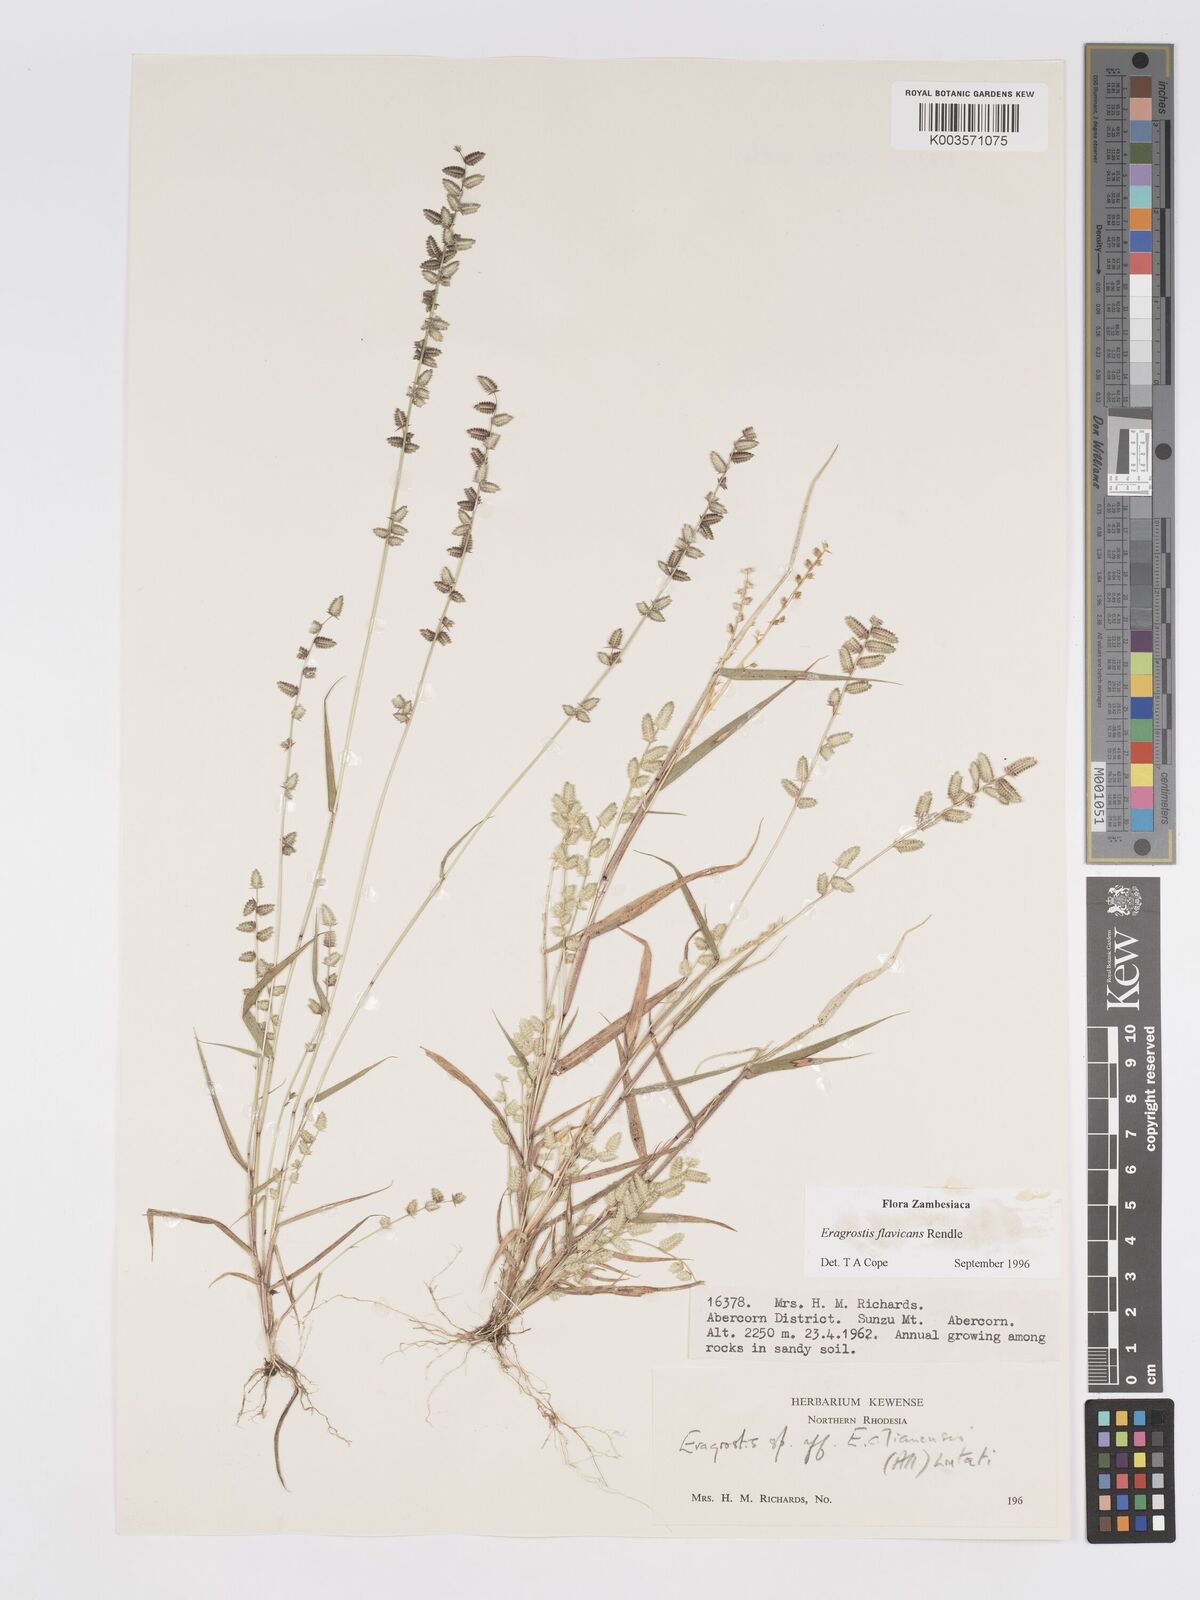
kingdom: Plantae
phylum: Tracheophyta
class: Liliopsida
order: Poales
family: Poaceae
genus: Eragrostis
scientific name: Eragrostis flavicans
